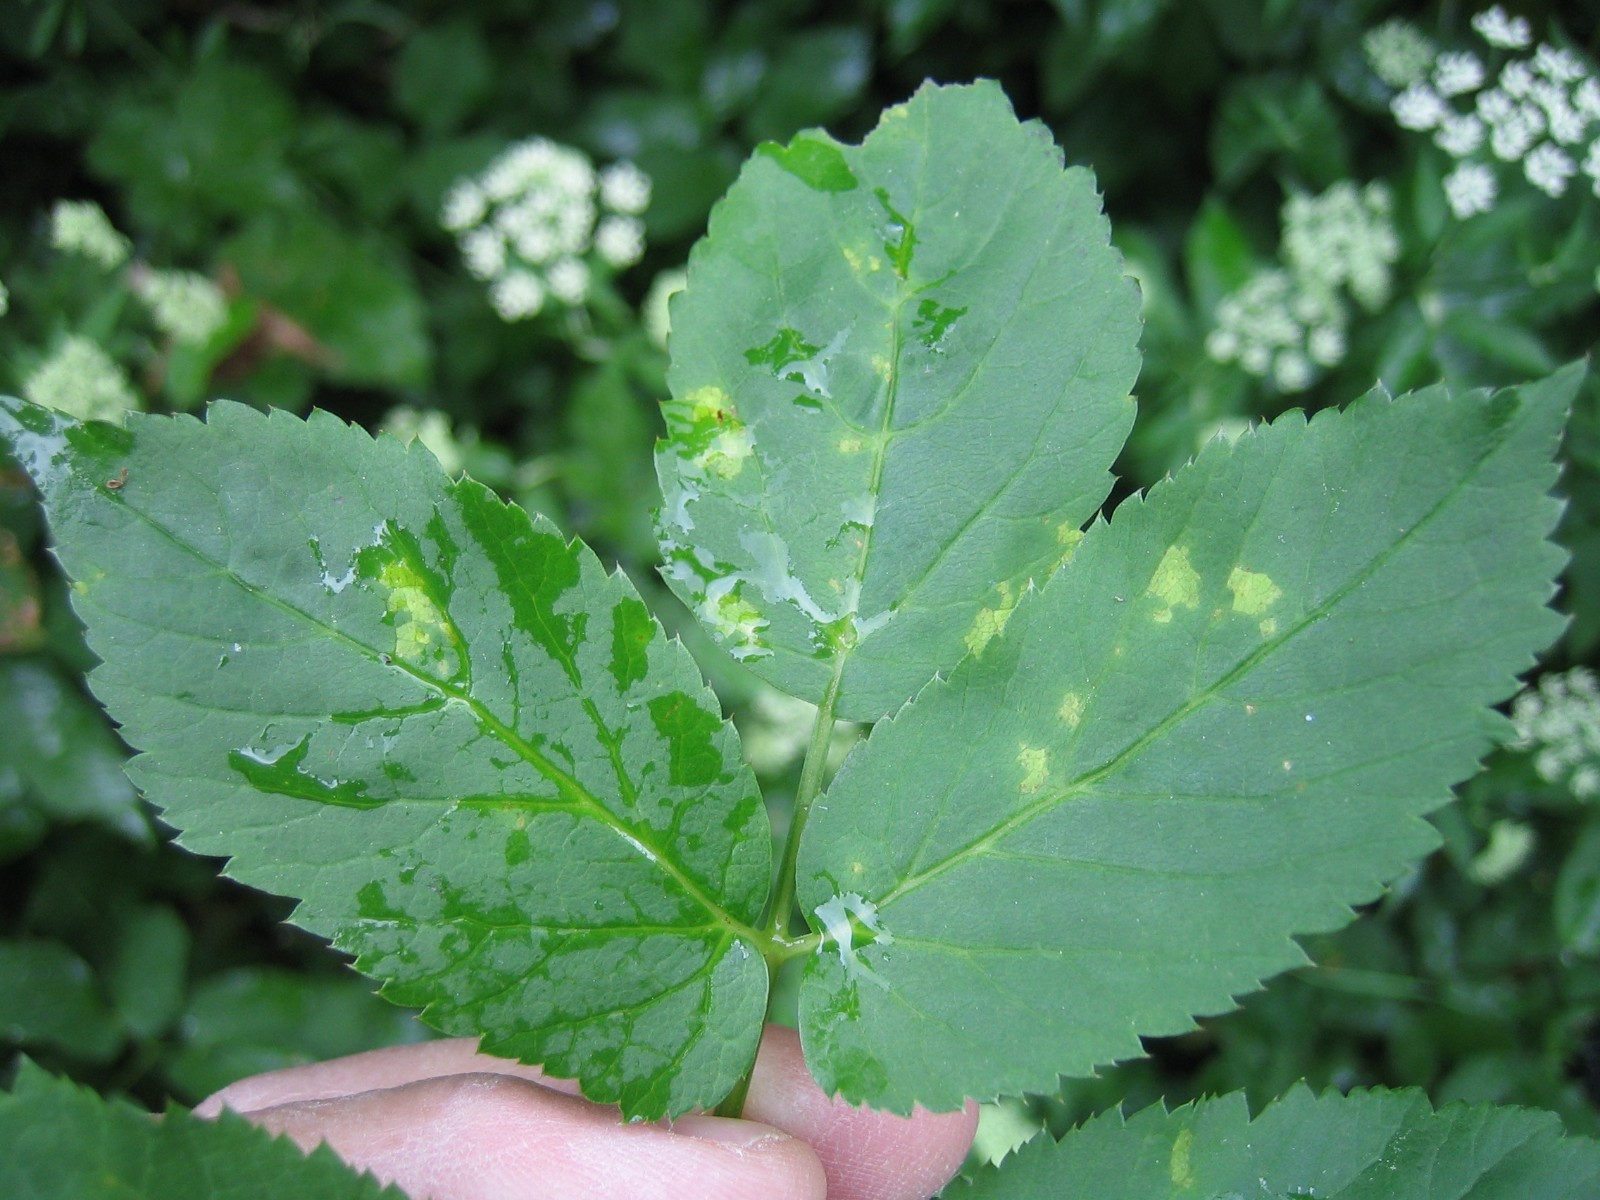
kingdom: Chromista
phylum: Oomycota
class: Peronosporea
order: Peronosporales
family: Peronosporaceae
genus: Peronospora
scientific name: Peronospora crustosa
